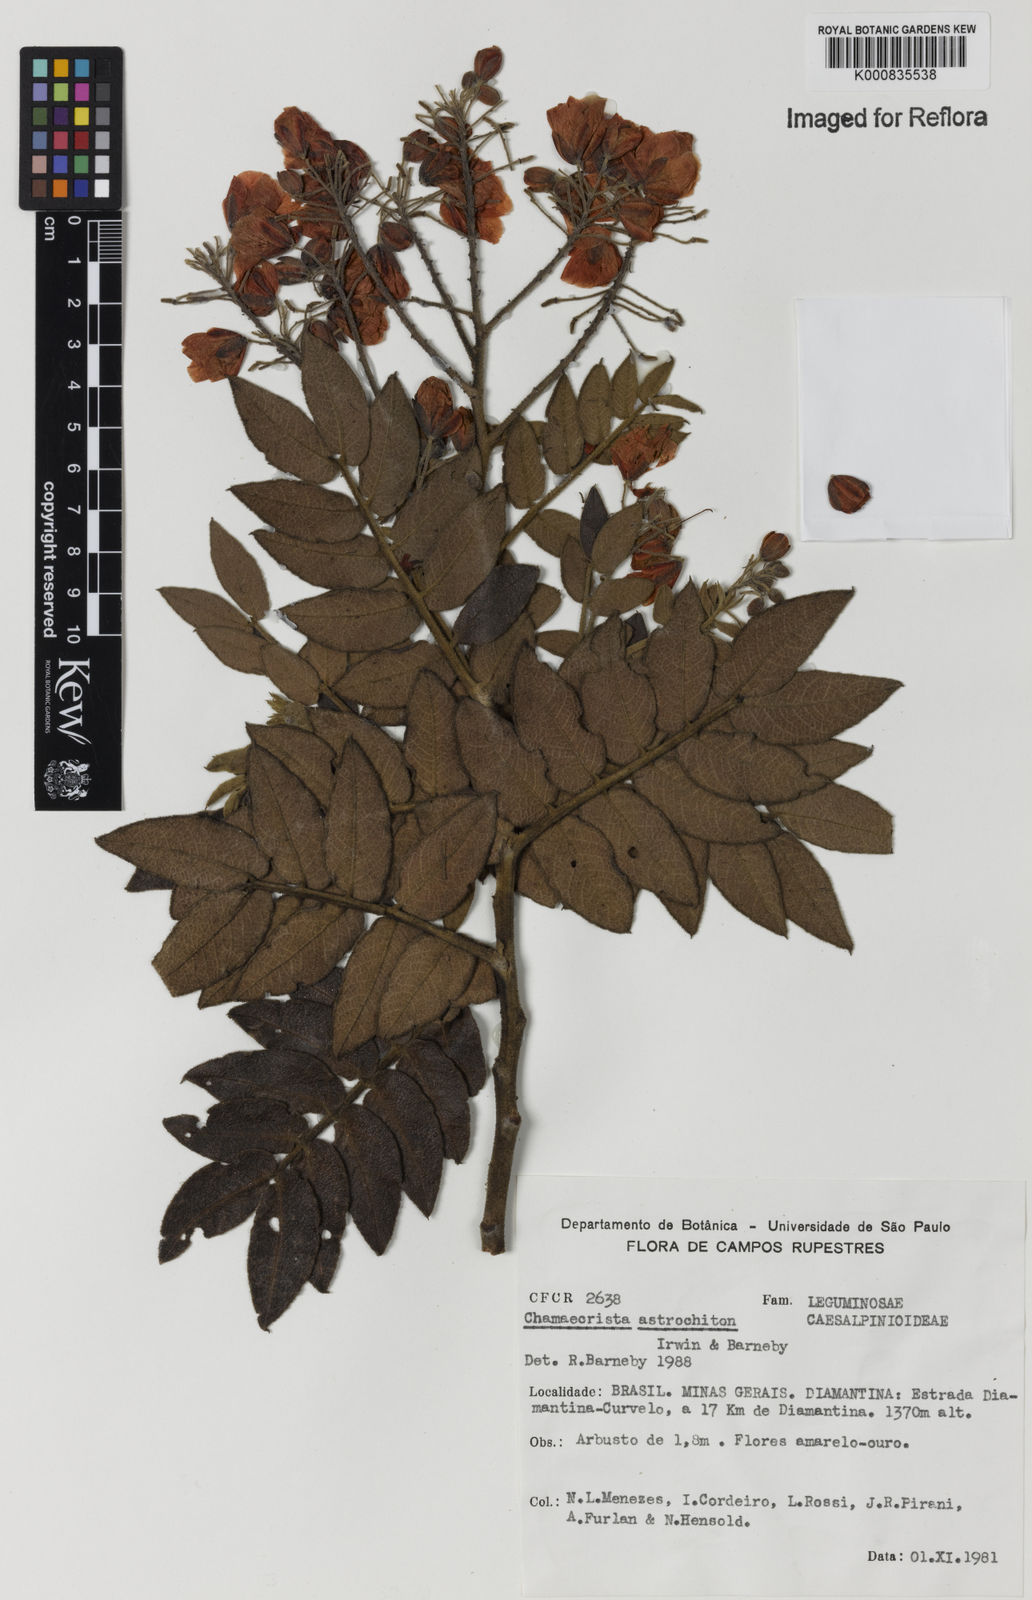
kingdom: Plantae
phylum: Tracheophyta
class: Magnoliopsida
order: Fabales
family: Fabaceae
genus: Chamaecrista
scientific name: Chamaecrista astrochiton
